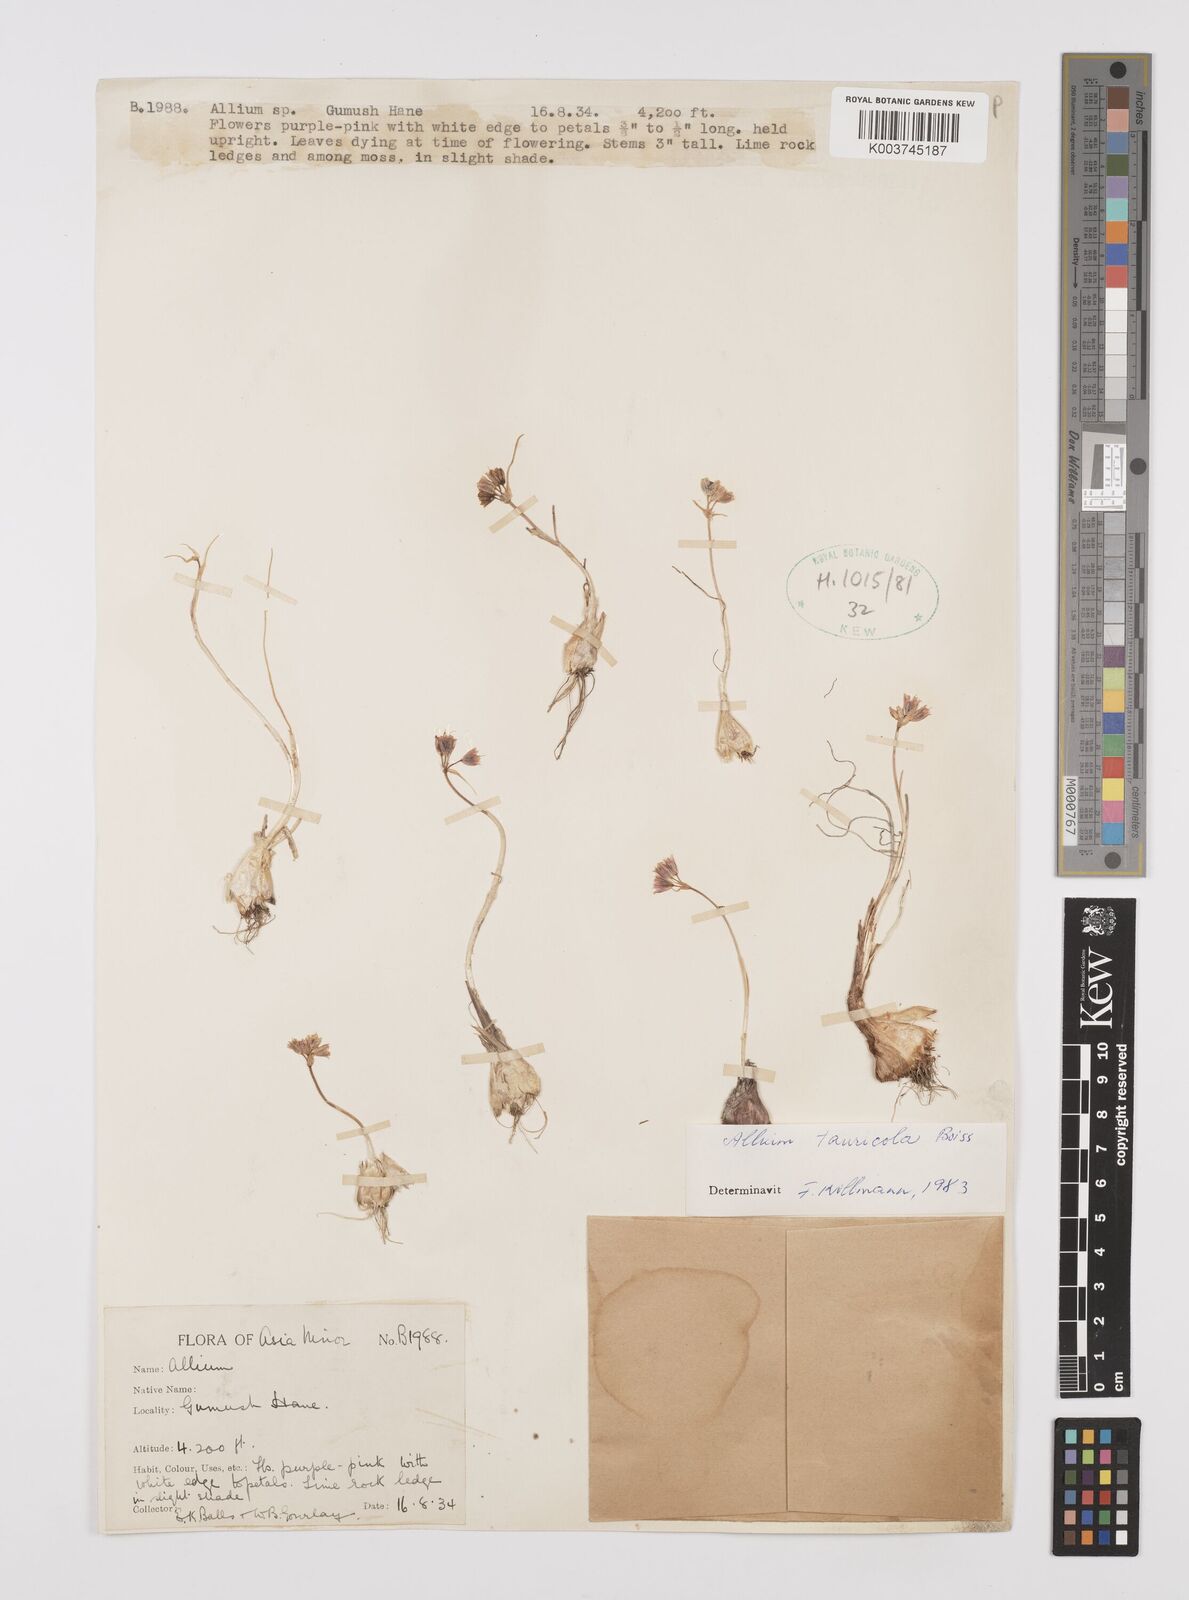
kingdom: Plantae
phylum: Tracheophyta
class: Liliopsida
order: Asparagales
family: Amaryllidaceae
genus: Allium
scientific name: Allium tauricola
